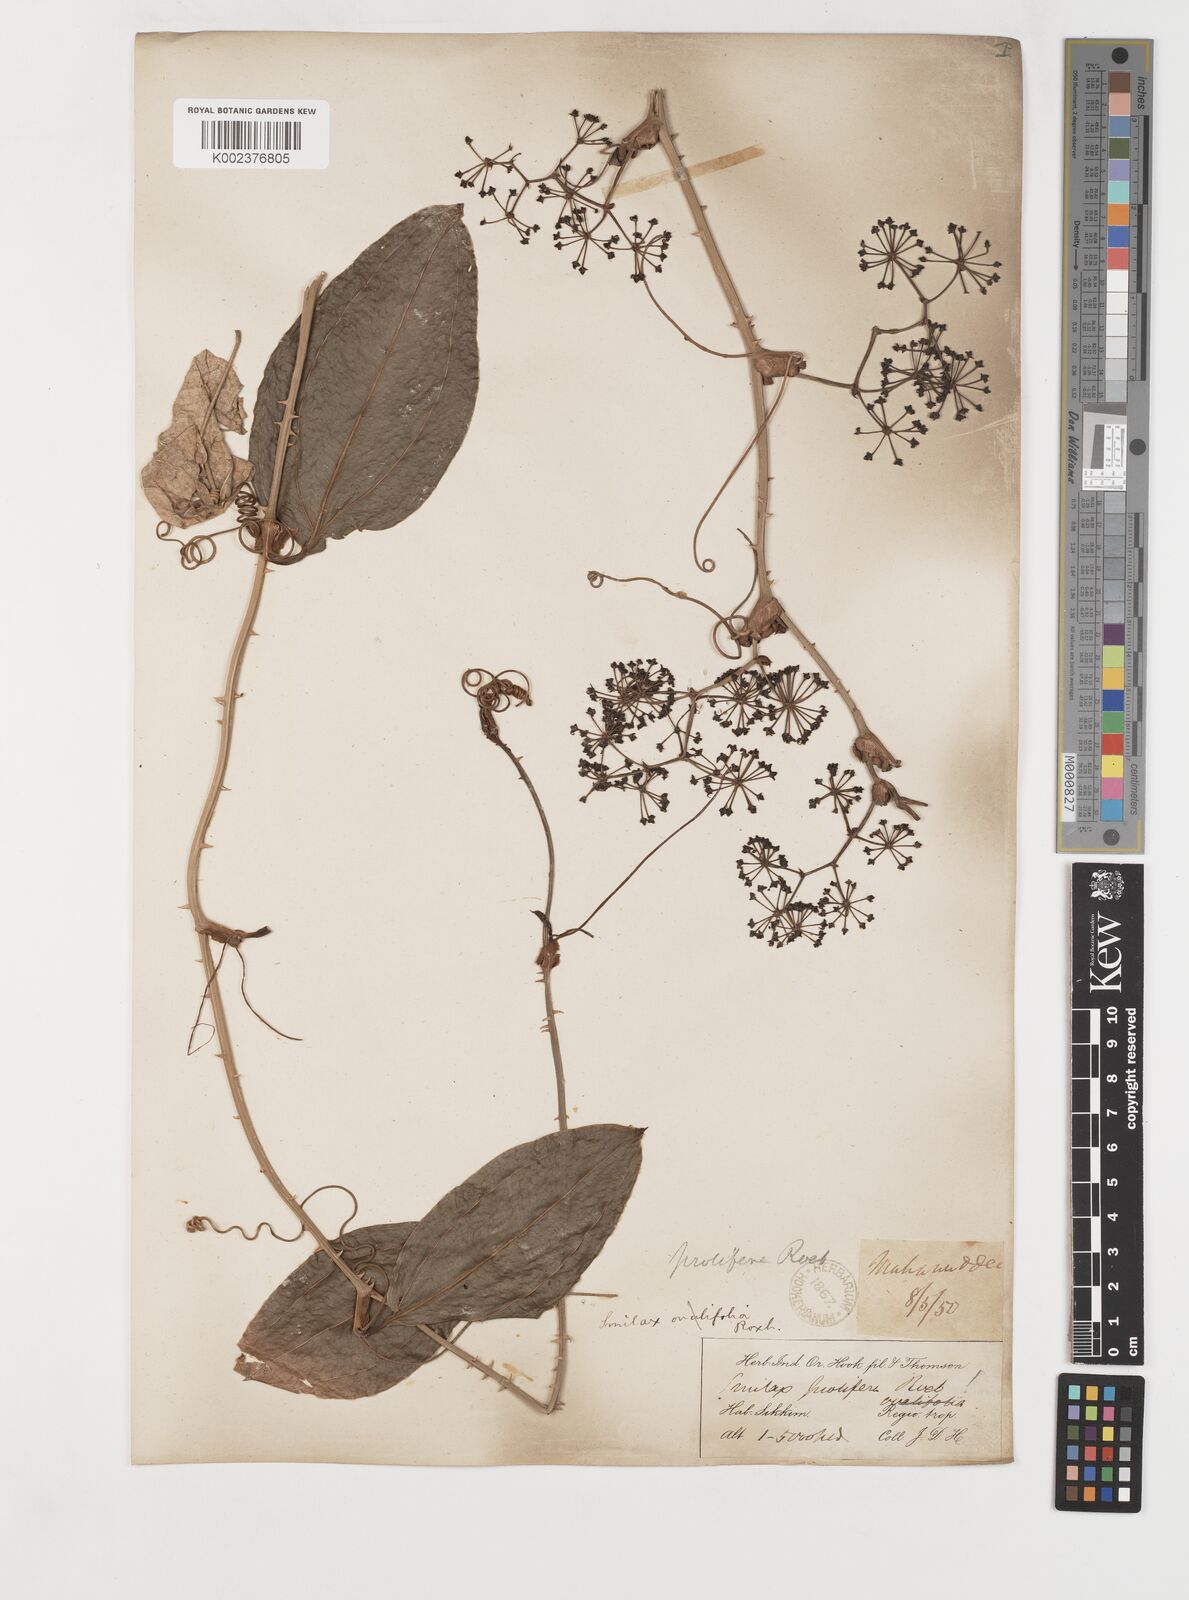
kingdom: Plantae
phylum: Tracheophyta
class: Liliopsida
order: Liliales
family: Smilacaceae
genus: Smilax
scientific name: Smilax prolifera
